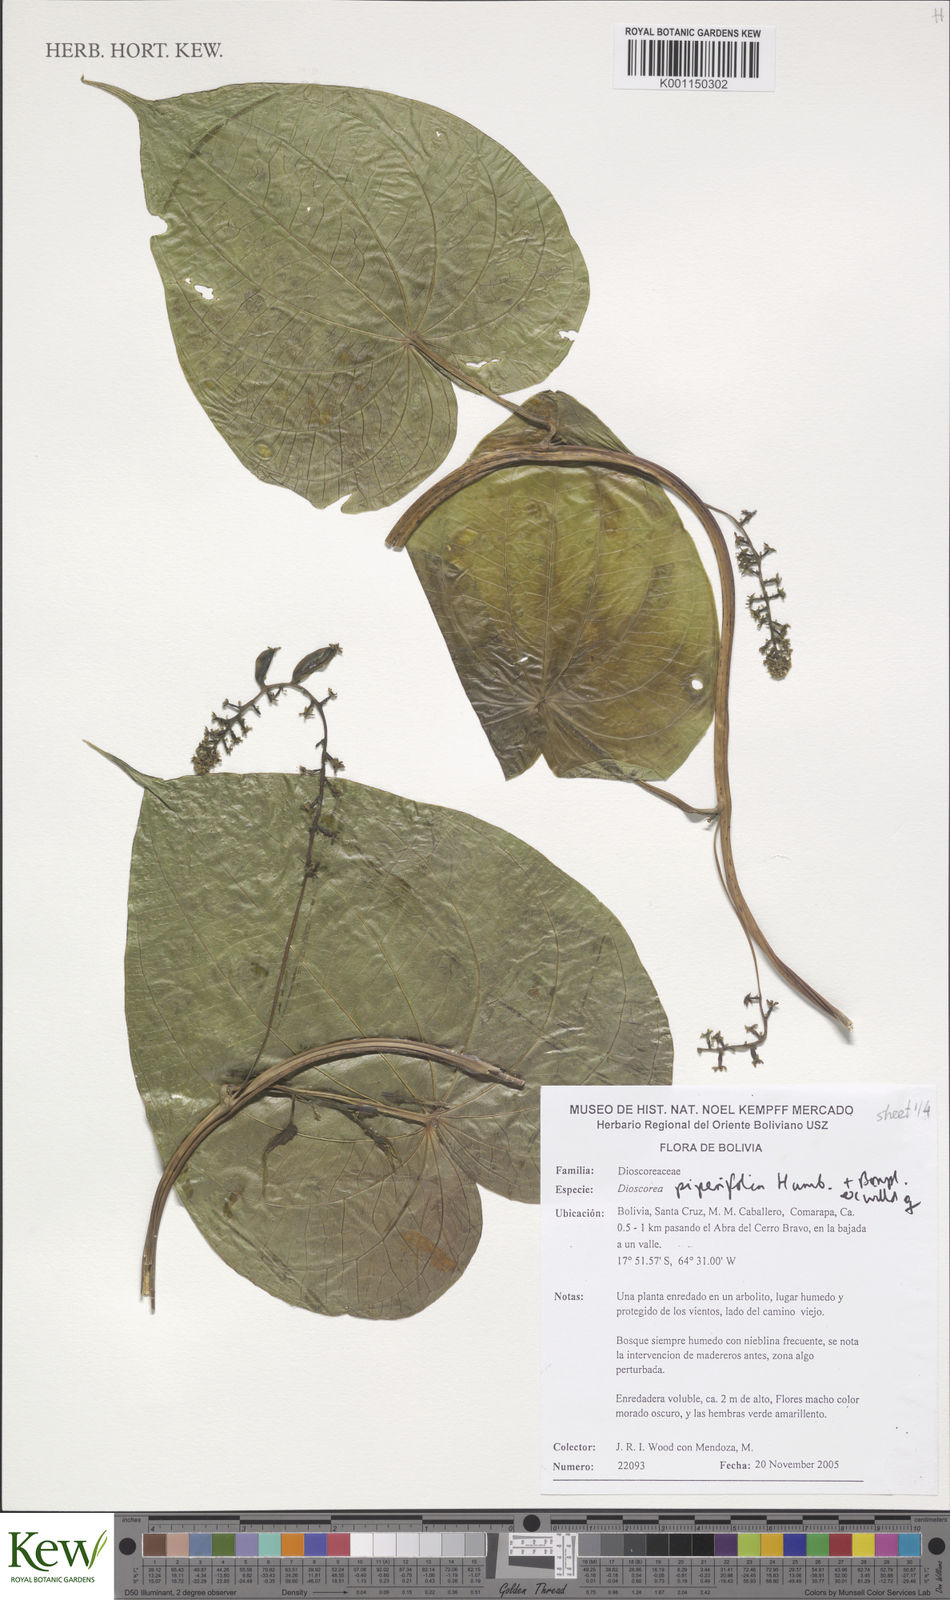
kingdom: Plantae
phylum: Tracheophyta
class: Liliopsida
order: Dioscoreales
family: Dioscoreaceae
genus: Dioscorea
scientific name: Dioscorea piperifolia
